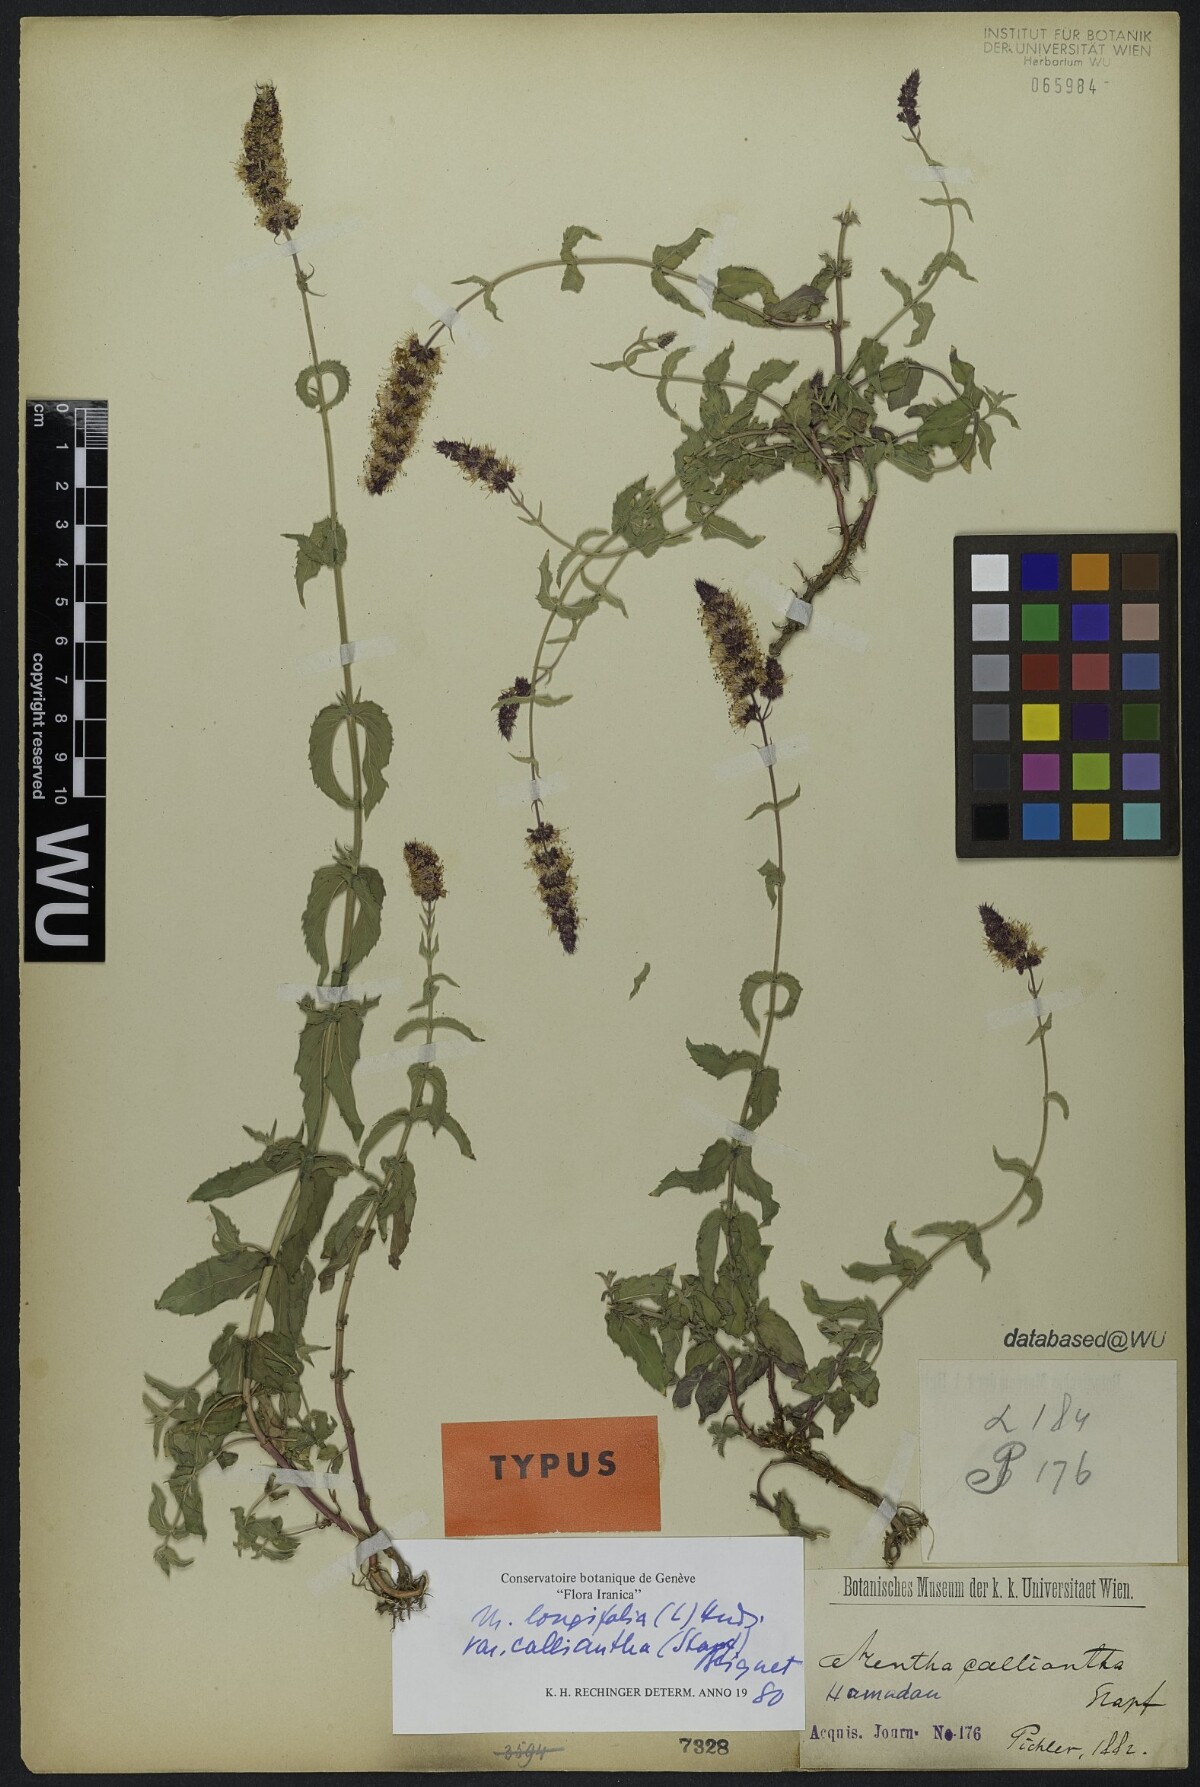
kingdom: Plantae
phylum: Tracheophyta
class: Magnoliopsida
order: Lamiales
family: Lamiaceae
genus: Mentha
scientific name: Mentha longifolia
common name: Horse mint
